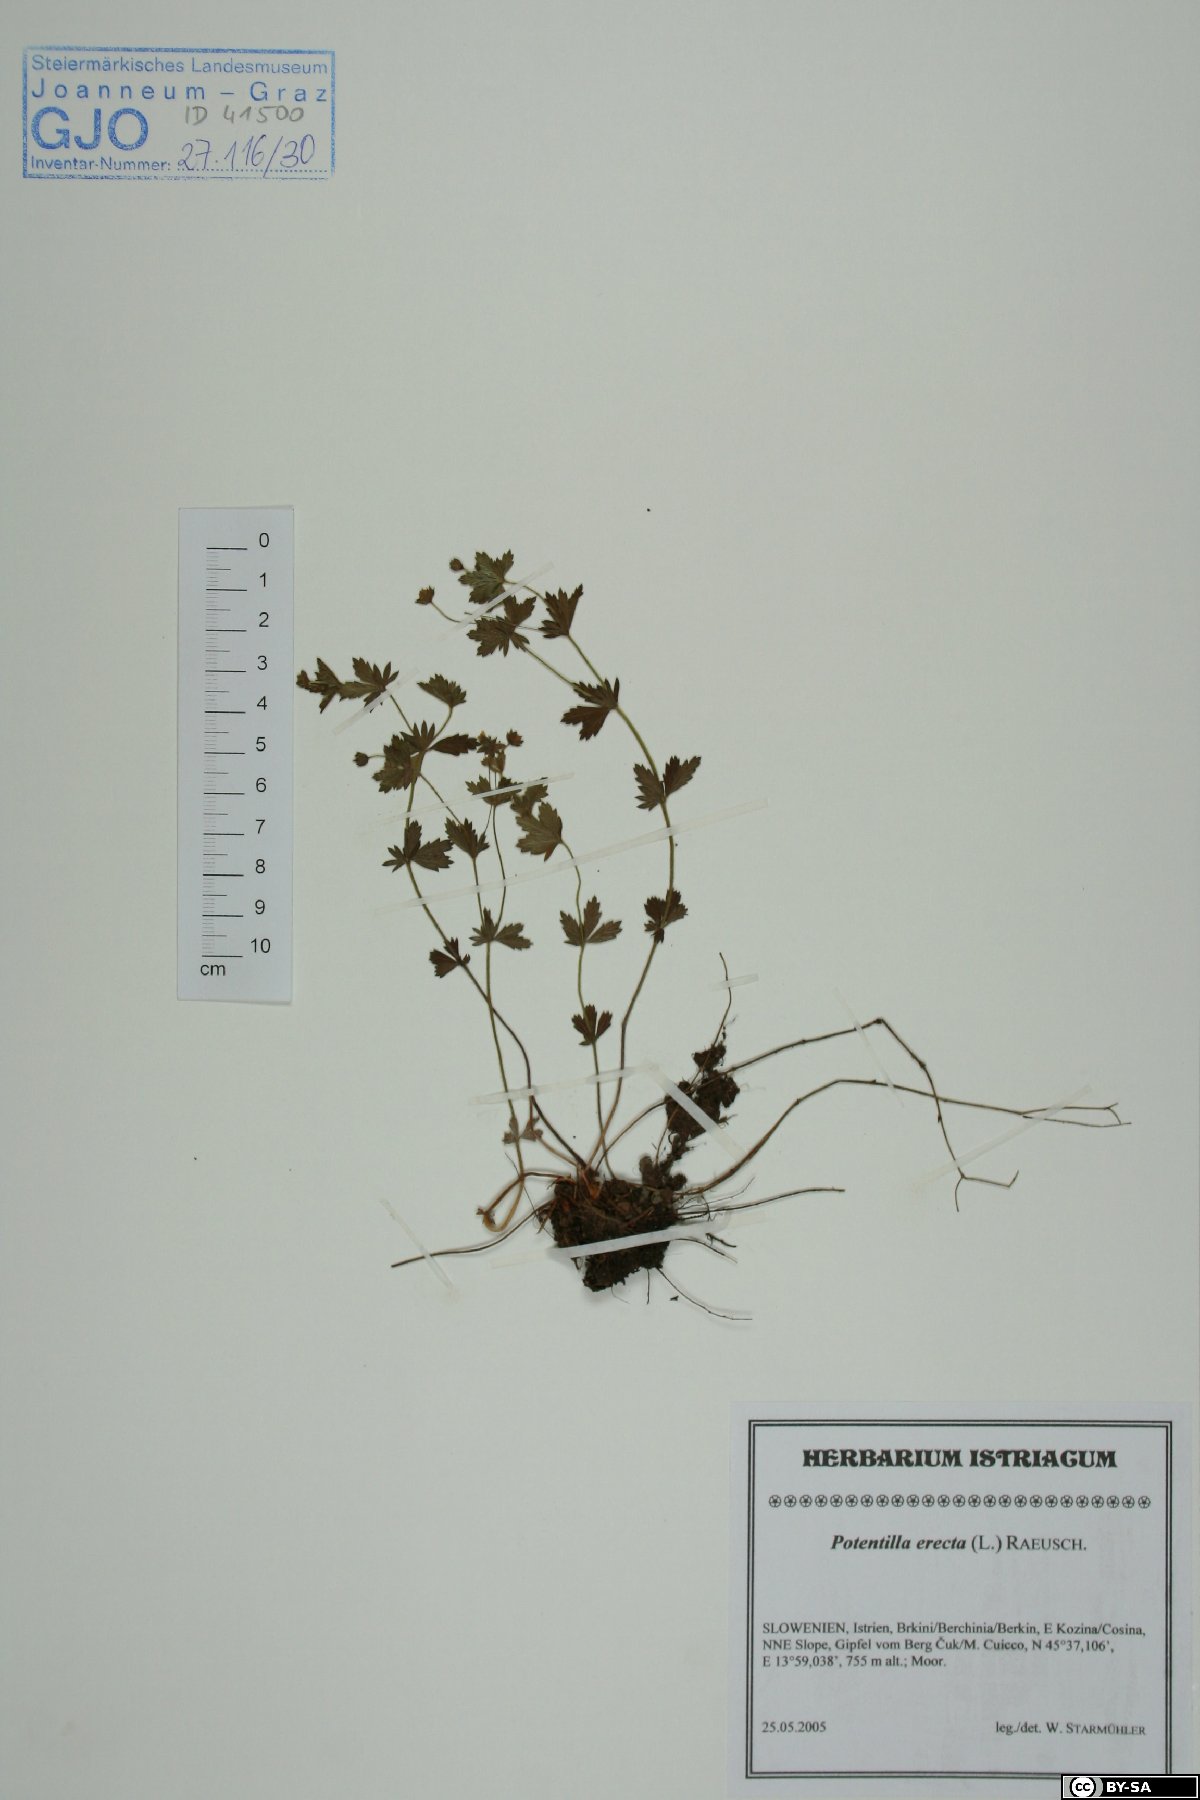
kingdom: Plantae
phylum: Tracheophyta
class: Magnoliopsida
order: Rosales
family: Rosaceae
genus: Potentilla
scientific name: Potentilla erecta
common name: Tormentil
